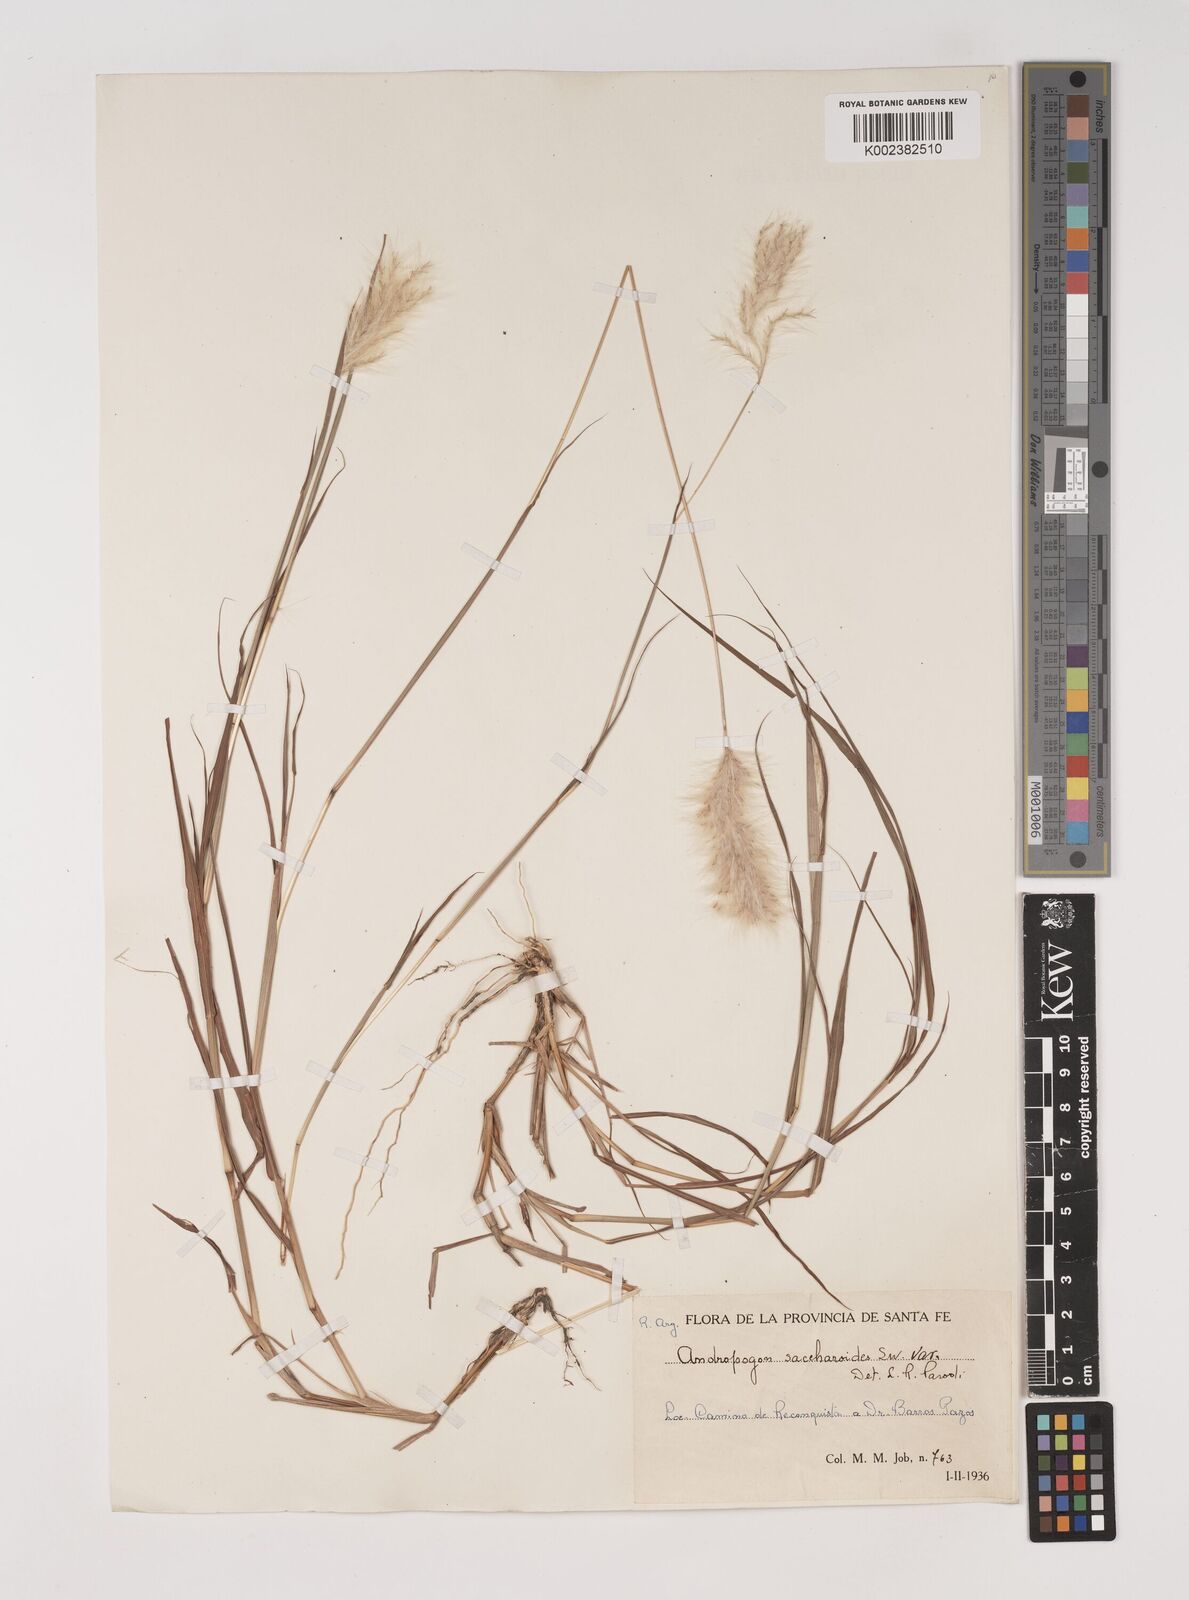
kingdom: Plantae
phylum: Tracheophyta
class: Liliopsida
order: Poales
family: Poaceae
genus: Bothriochloa
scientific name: Bothriochloa laguroides
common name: Silver bluestem
